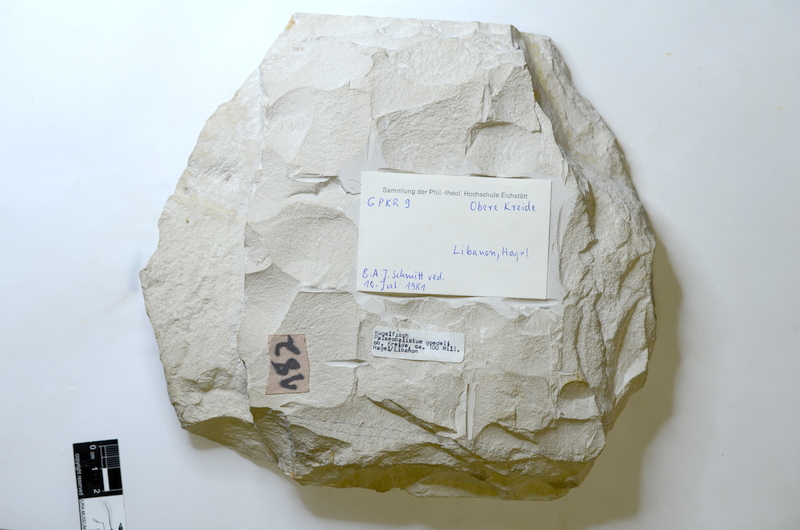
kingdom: Animalia
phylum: Chordata
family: Pycnodontes
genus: Nursallia
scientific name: Nursallia
